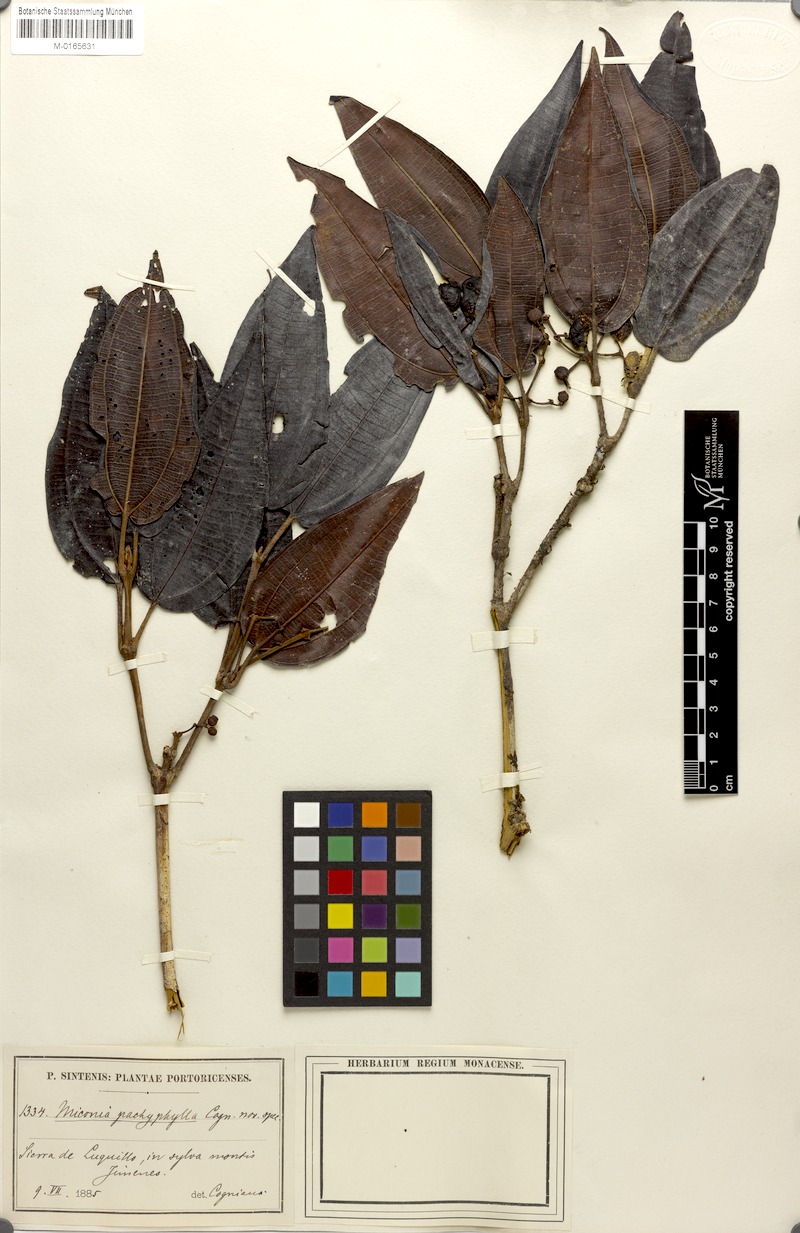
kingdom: Plantae
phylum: Tracheophyta
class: Magnoliopsida
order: Myrtales
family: Melastomataceae
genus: Miconia
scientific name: Miconia pachyphylla
